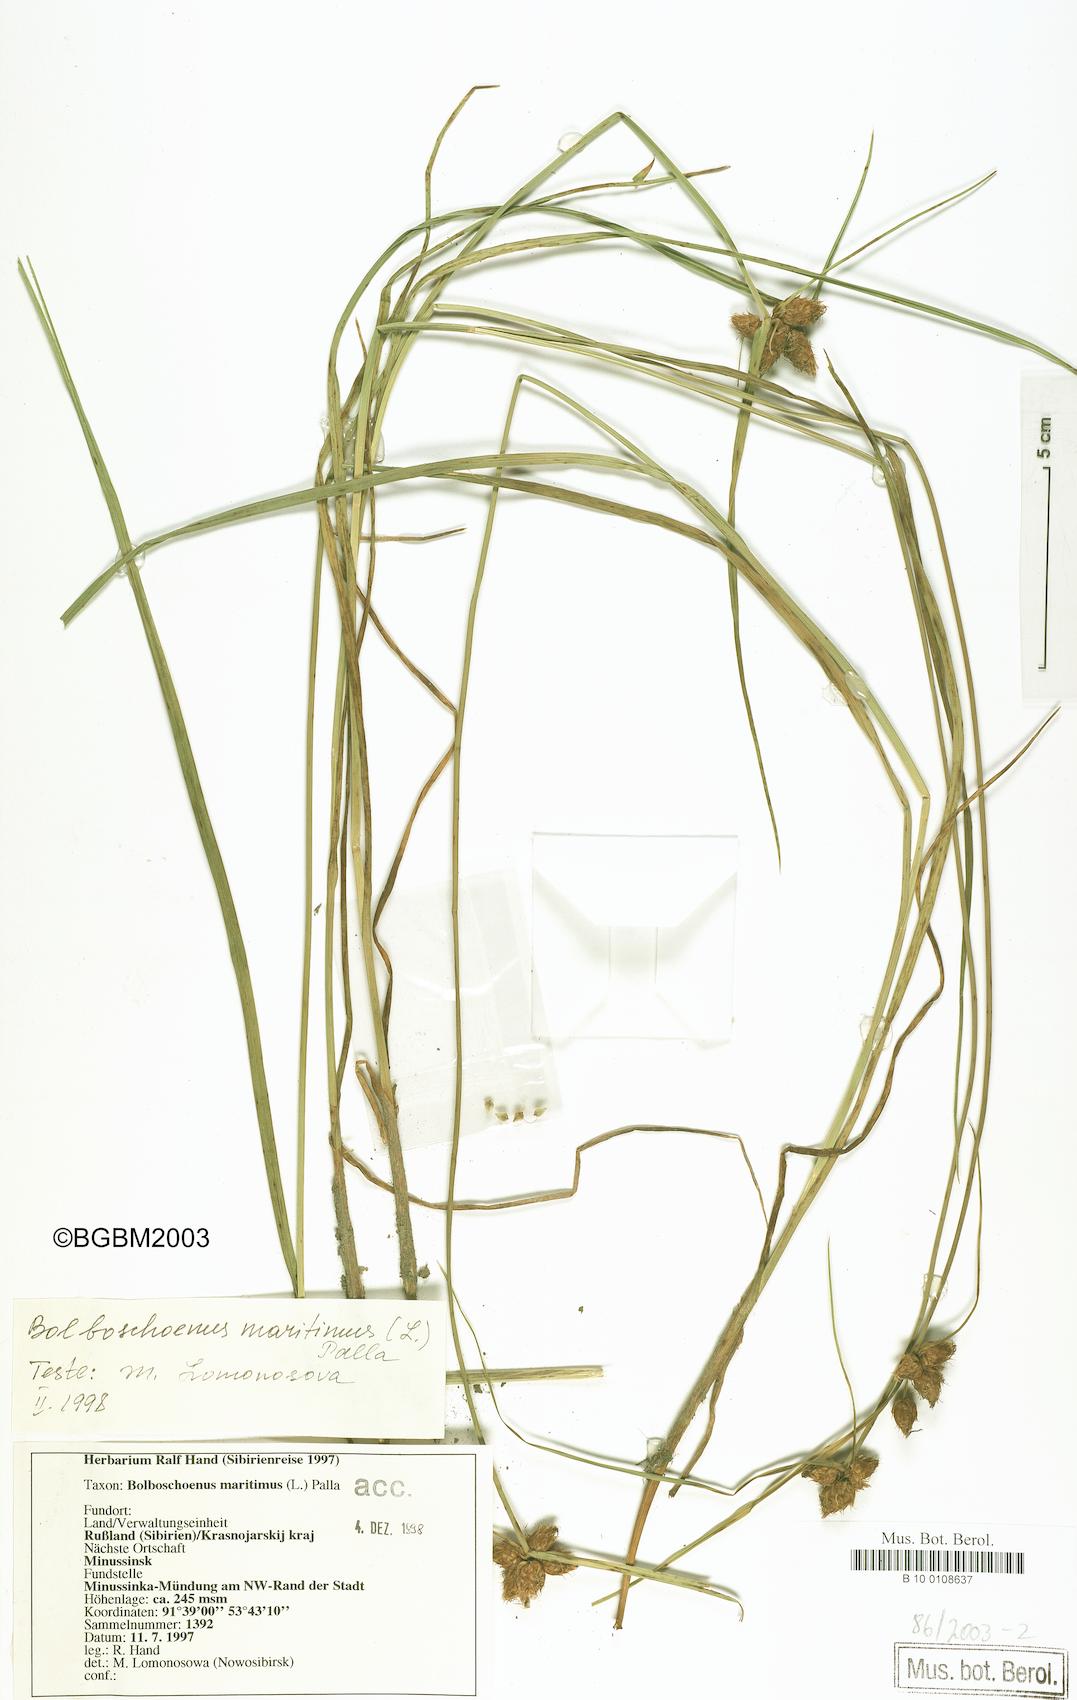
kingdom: Plantae
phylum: Tracheophyta
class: Liliopsida
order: Poales
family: Cyperaceae
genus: Bolboschoenus
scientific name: Bolboschoenus maritimus
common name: Sea club-rush
